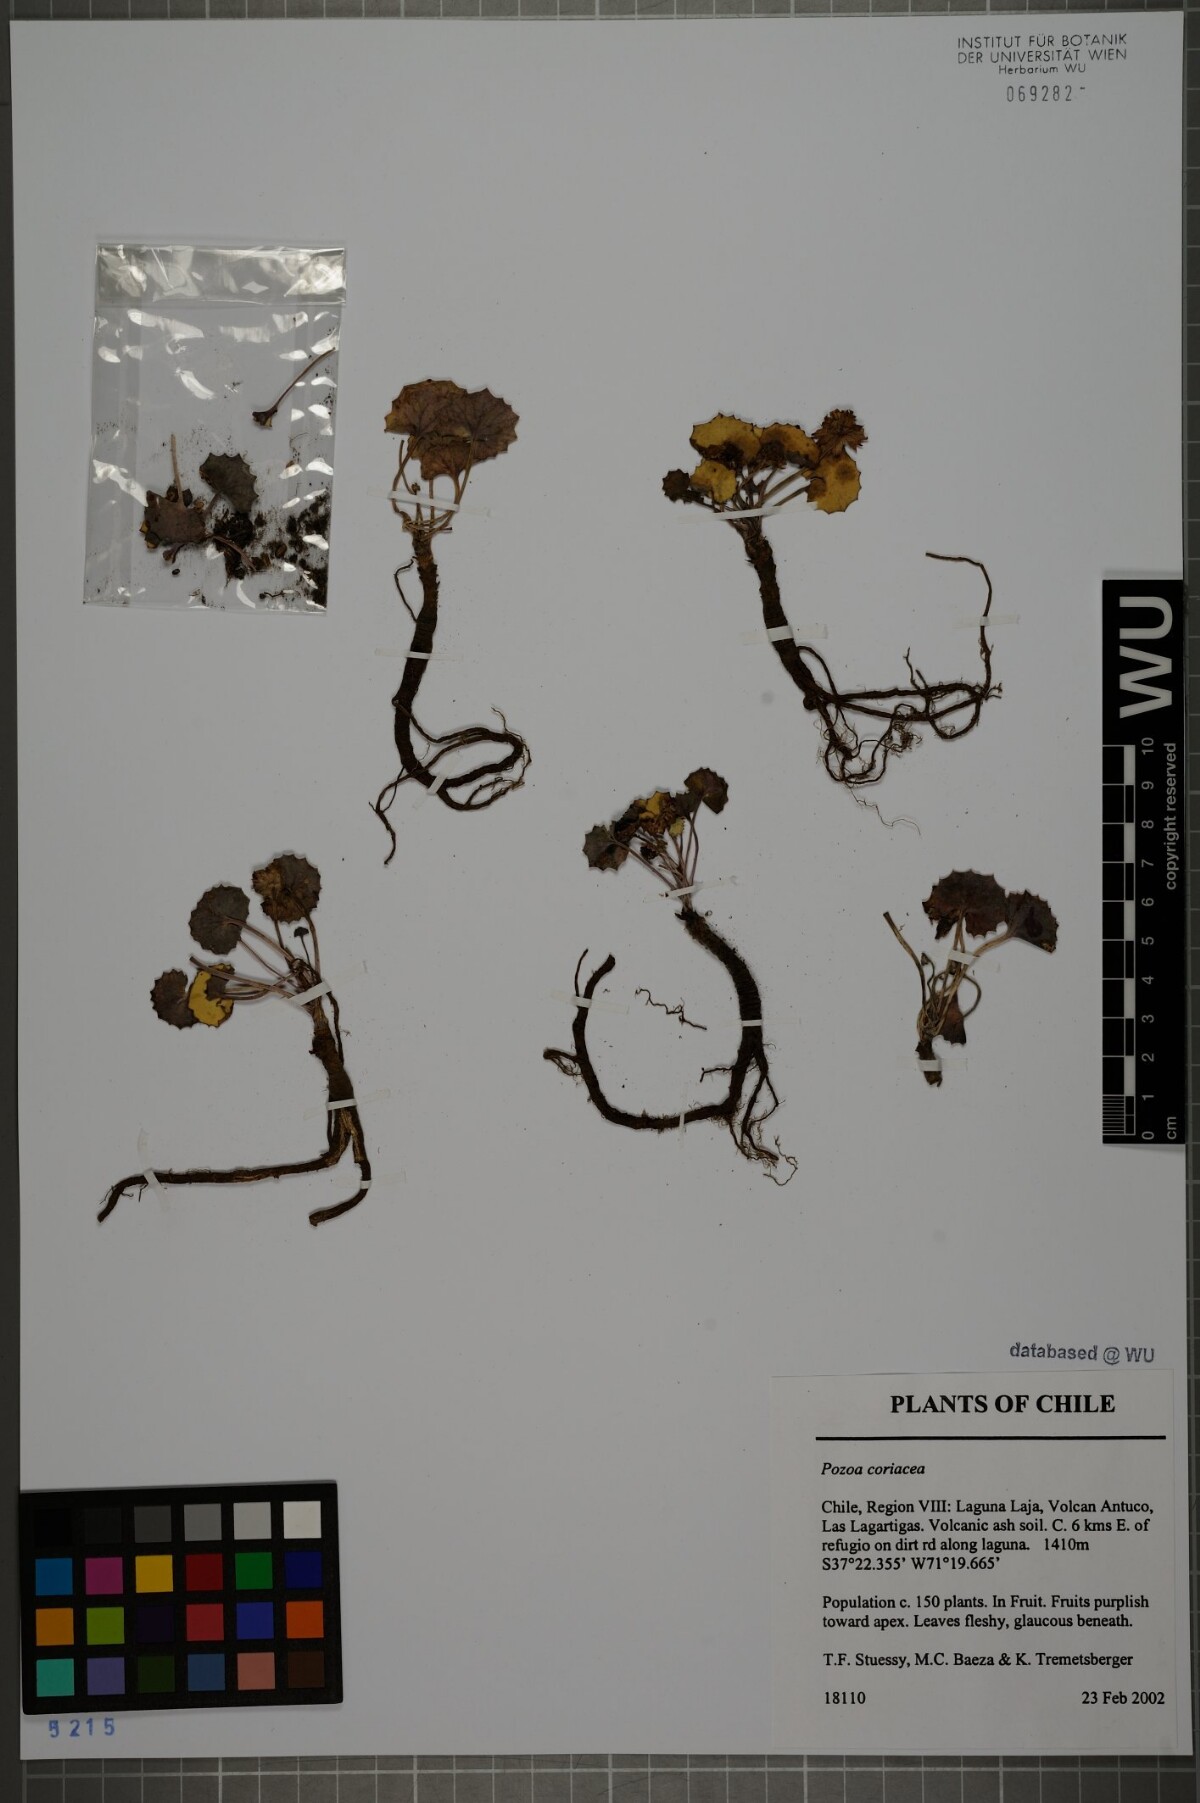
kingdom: Plantae
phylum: Tracheophyta
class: Magnoliopsida
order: Apiales
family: Apiaceae
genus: Pozoa
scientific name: Pozoa coriacea
